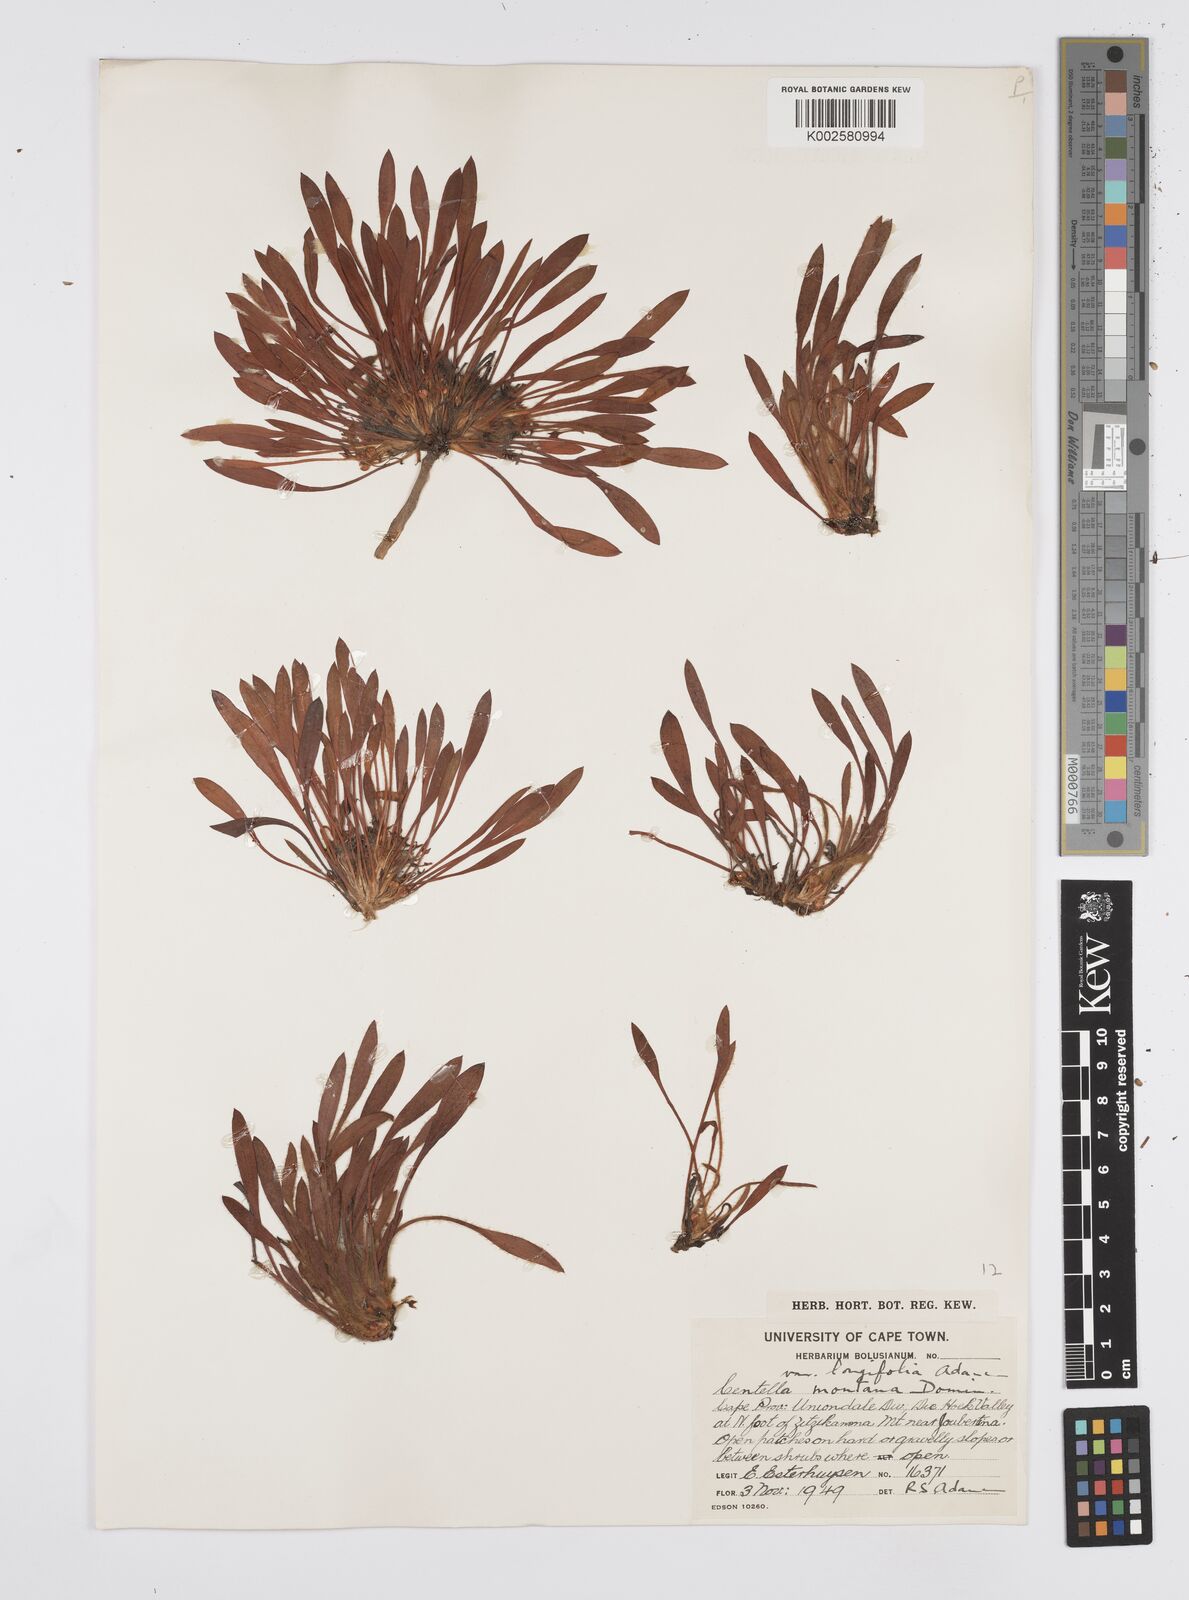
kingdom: Plantae
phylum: Tracheophyta
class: Magnoliopsida
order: Apiales
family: Apiaceae
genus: Centella
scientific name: Centella montana
